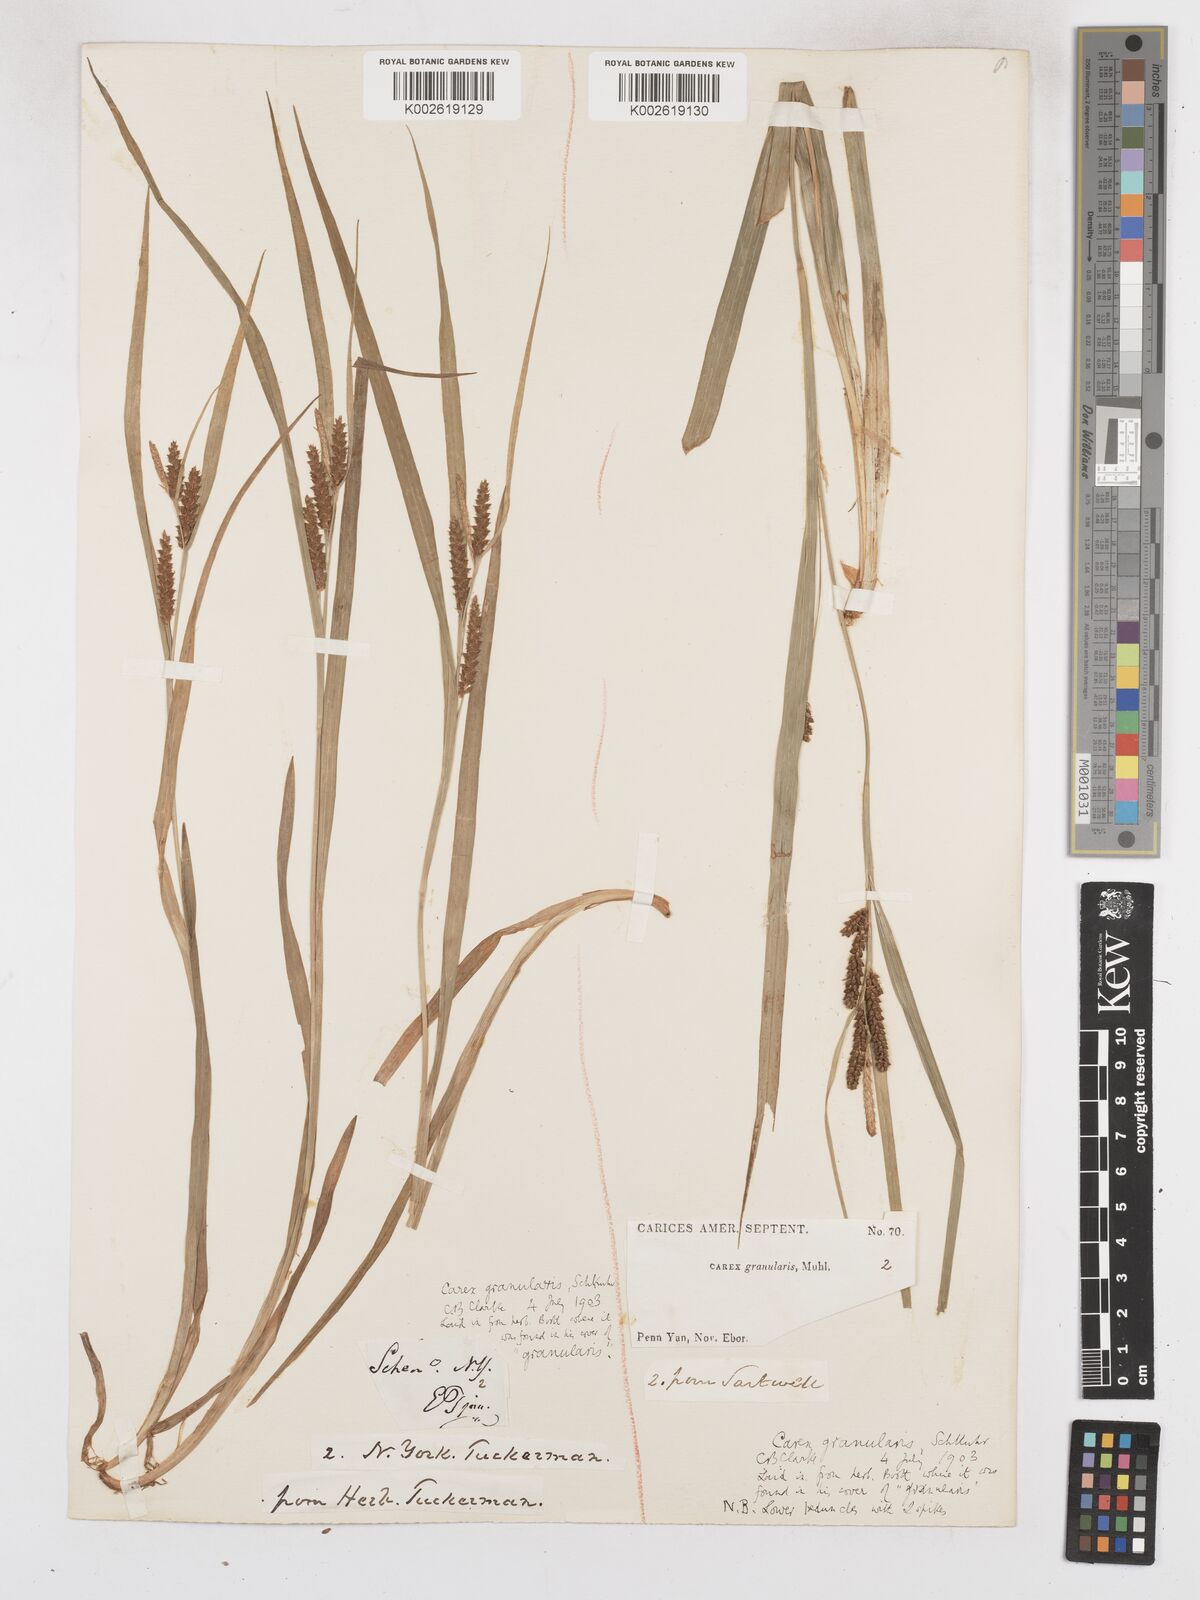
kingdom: Plantae
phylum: Tracheophyta
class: Liliopsida
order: Poales
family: Cyperaceae
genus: Carex
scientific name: Carex granularis
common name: Granular sedge
